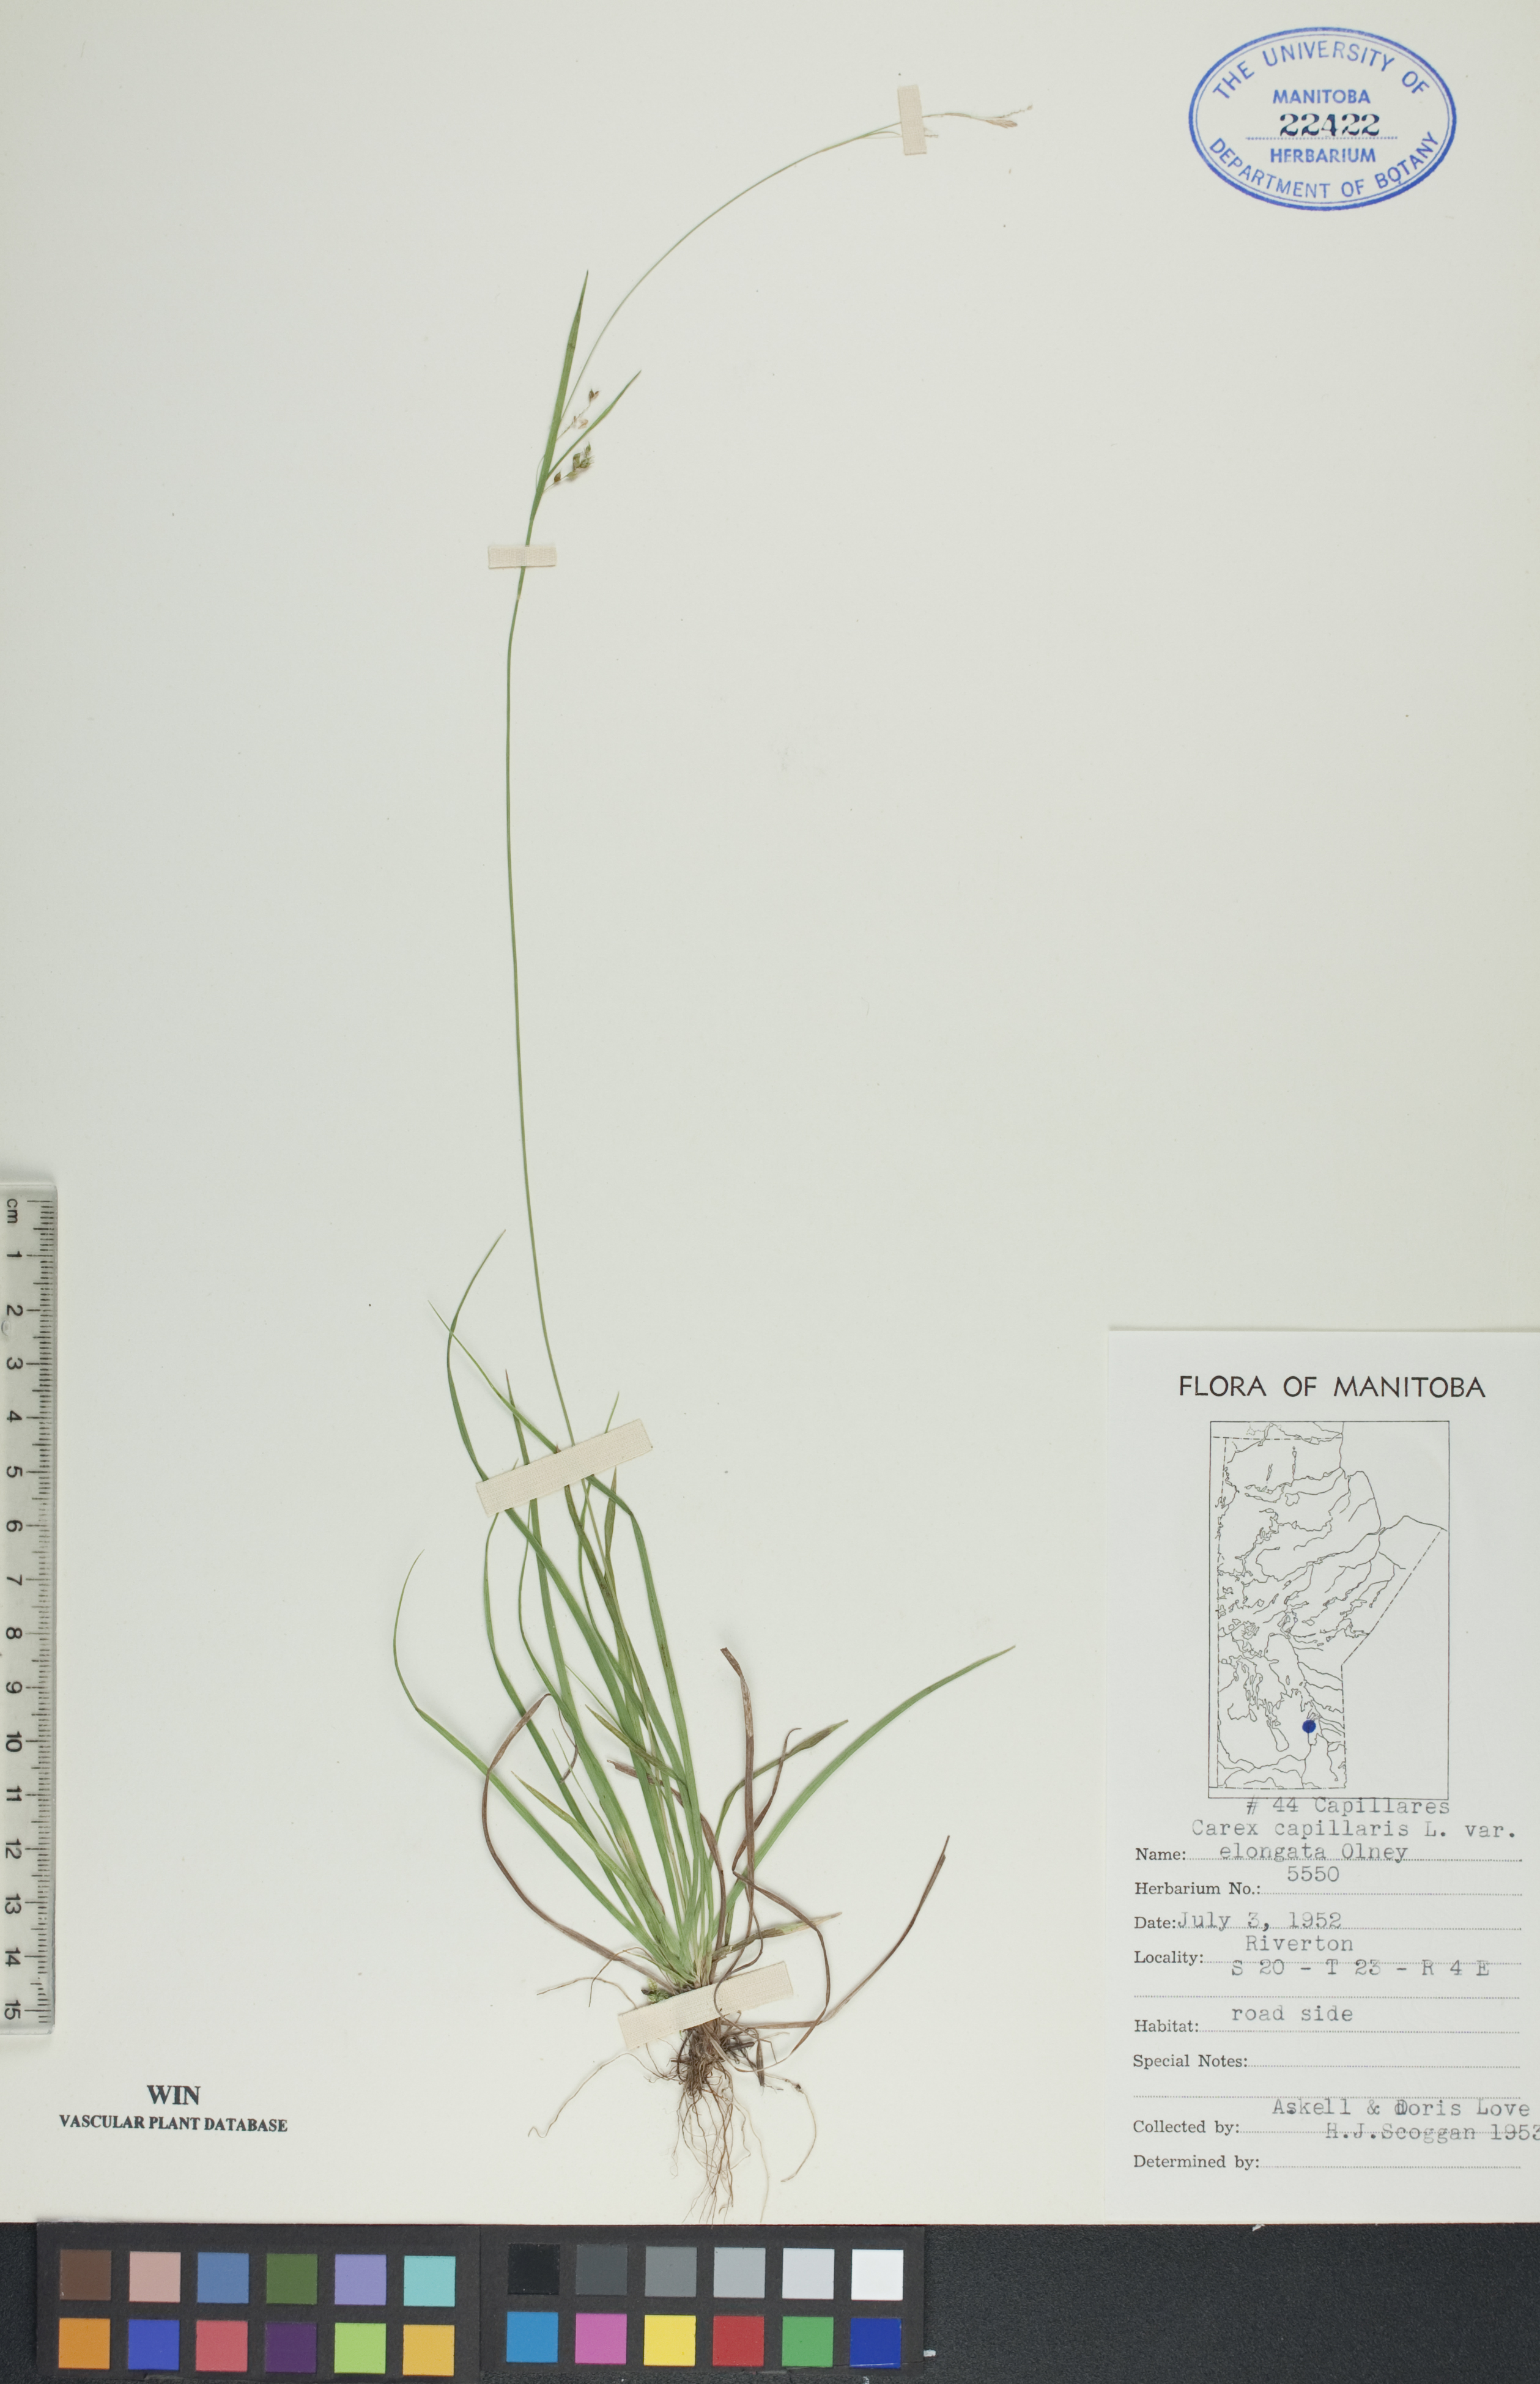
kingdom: Plantae
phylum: Tracheophyta
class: Liliopsida
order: Poales
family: Cyperaceae
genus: Carex
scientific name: Carex capillaris
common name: Hair sedge
